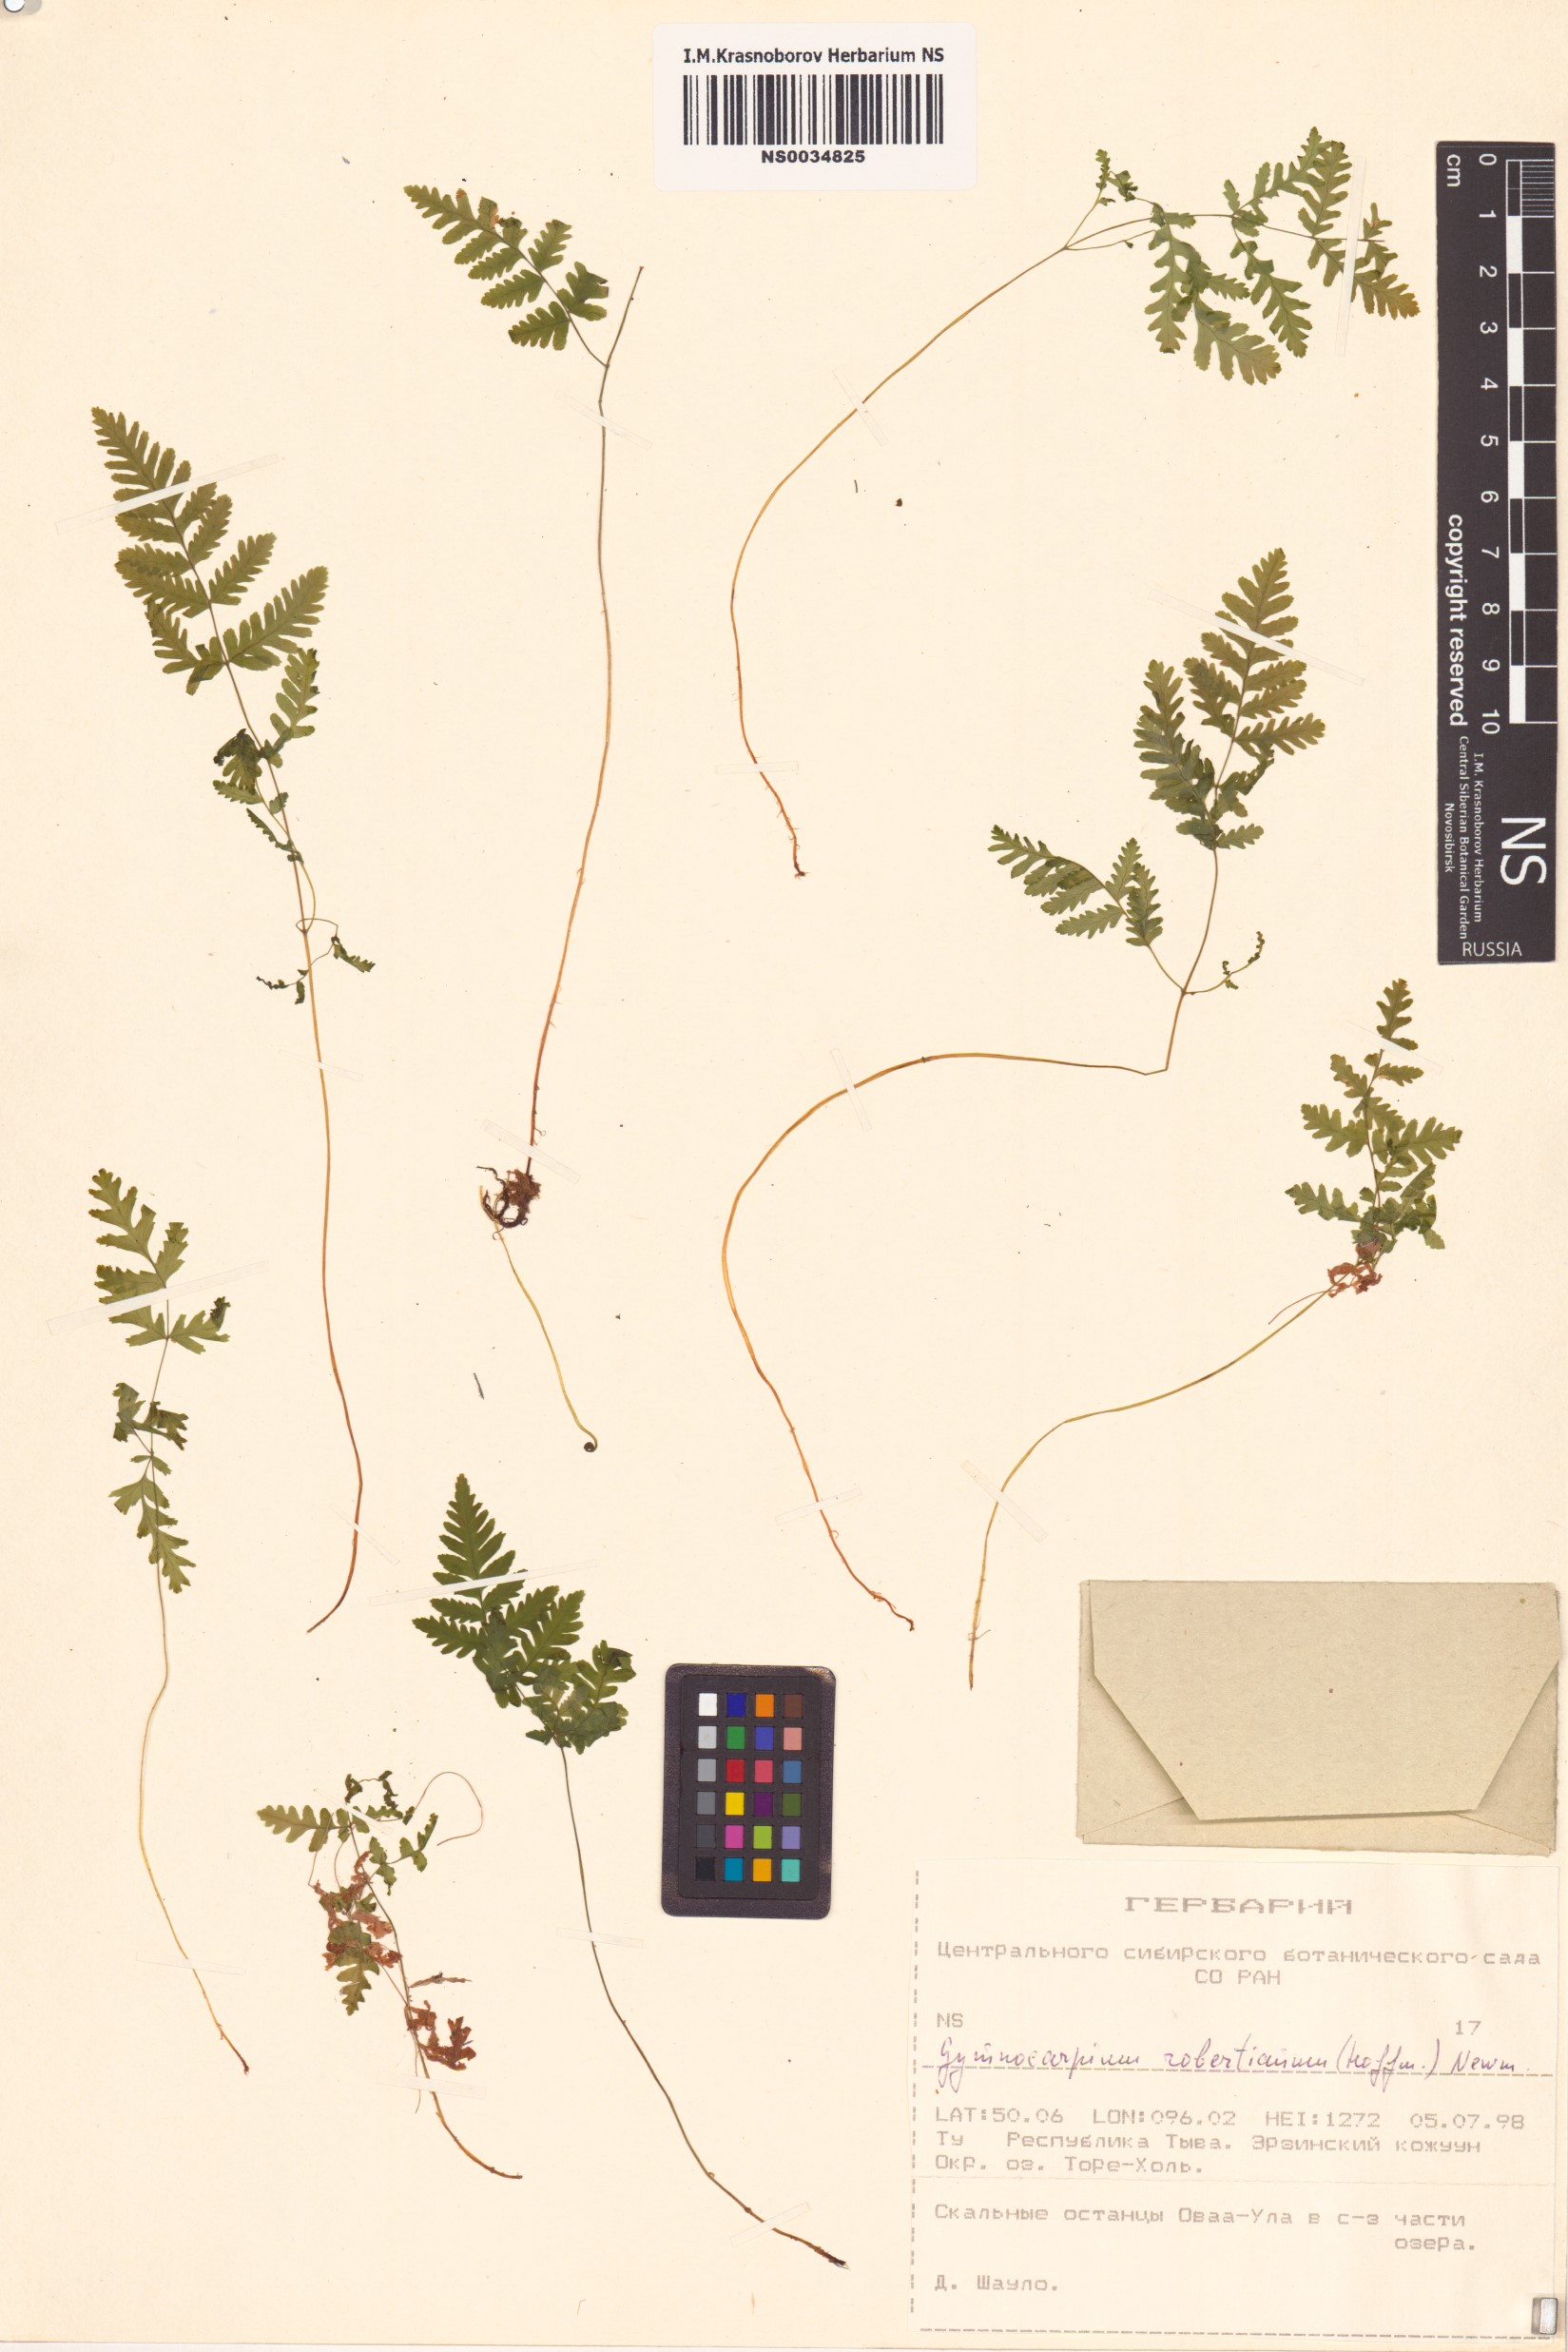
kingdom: Plantae
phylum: Tracheophyta
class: Polypodiopsida
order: Polypodiales
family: Cystopteridaceae
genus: Gymnocarpium
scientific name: Gymnocarpium robertianum
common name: Limestone fern
